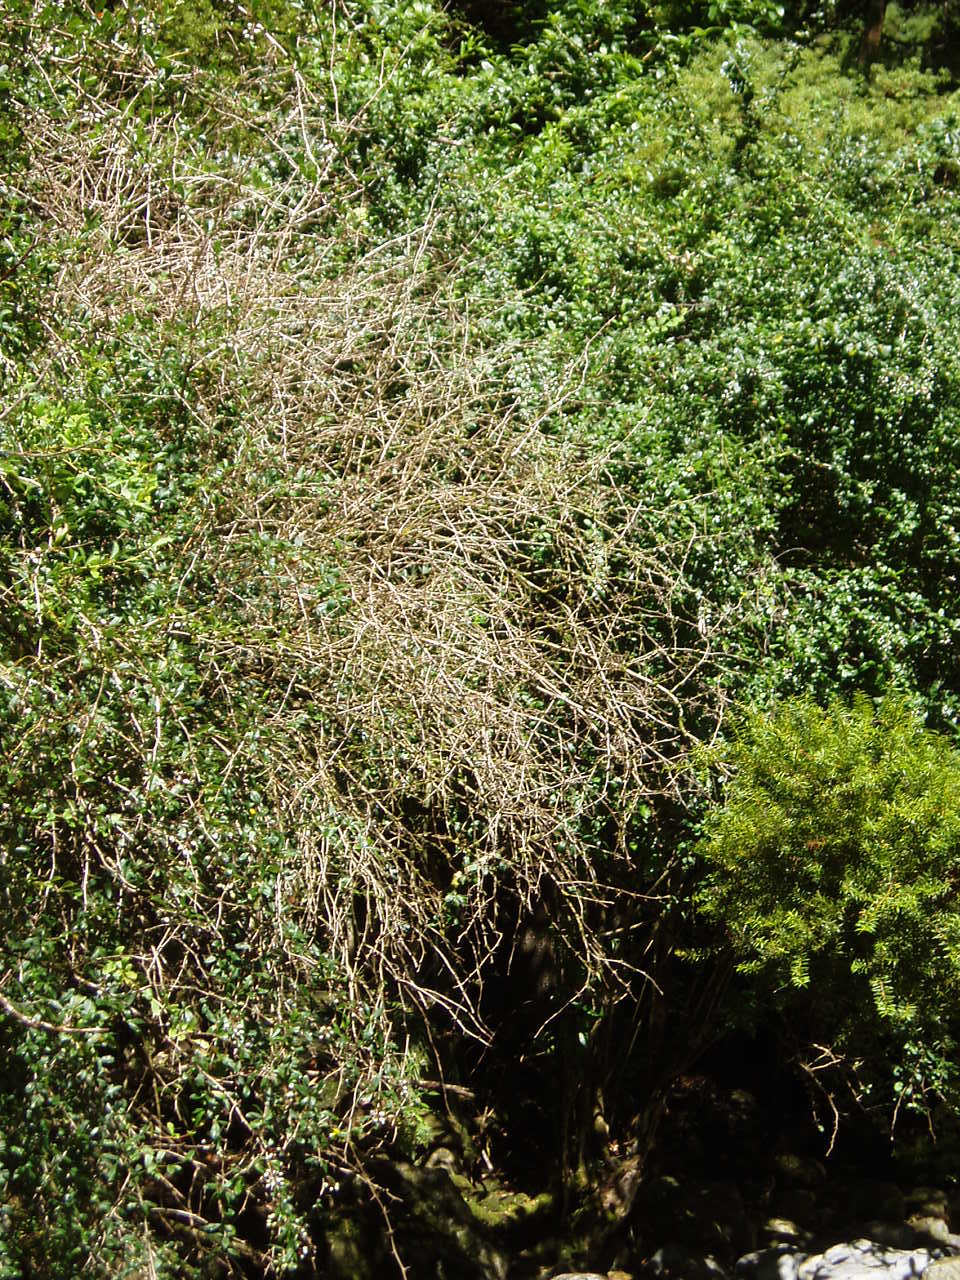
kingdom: Plantae
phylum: Tracheophyta
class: Magnoliopsida
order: Ranunculales
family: Berberidaceae
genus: Berberis
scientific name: Berberis glaucocarpa
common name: Great barberry
